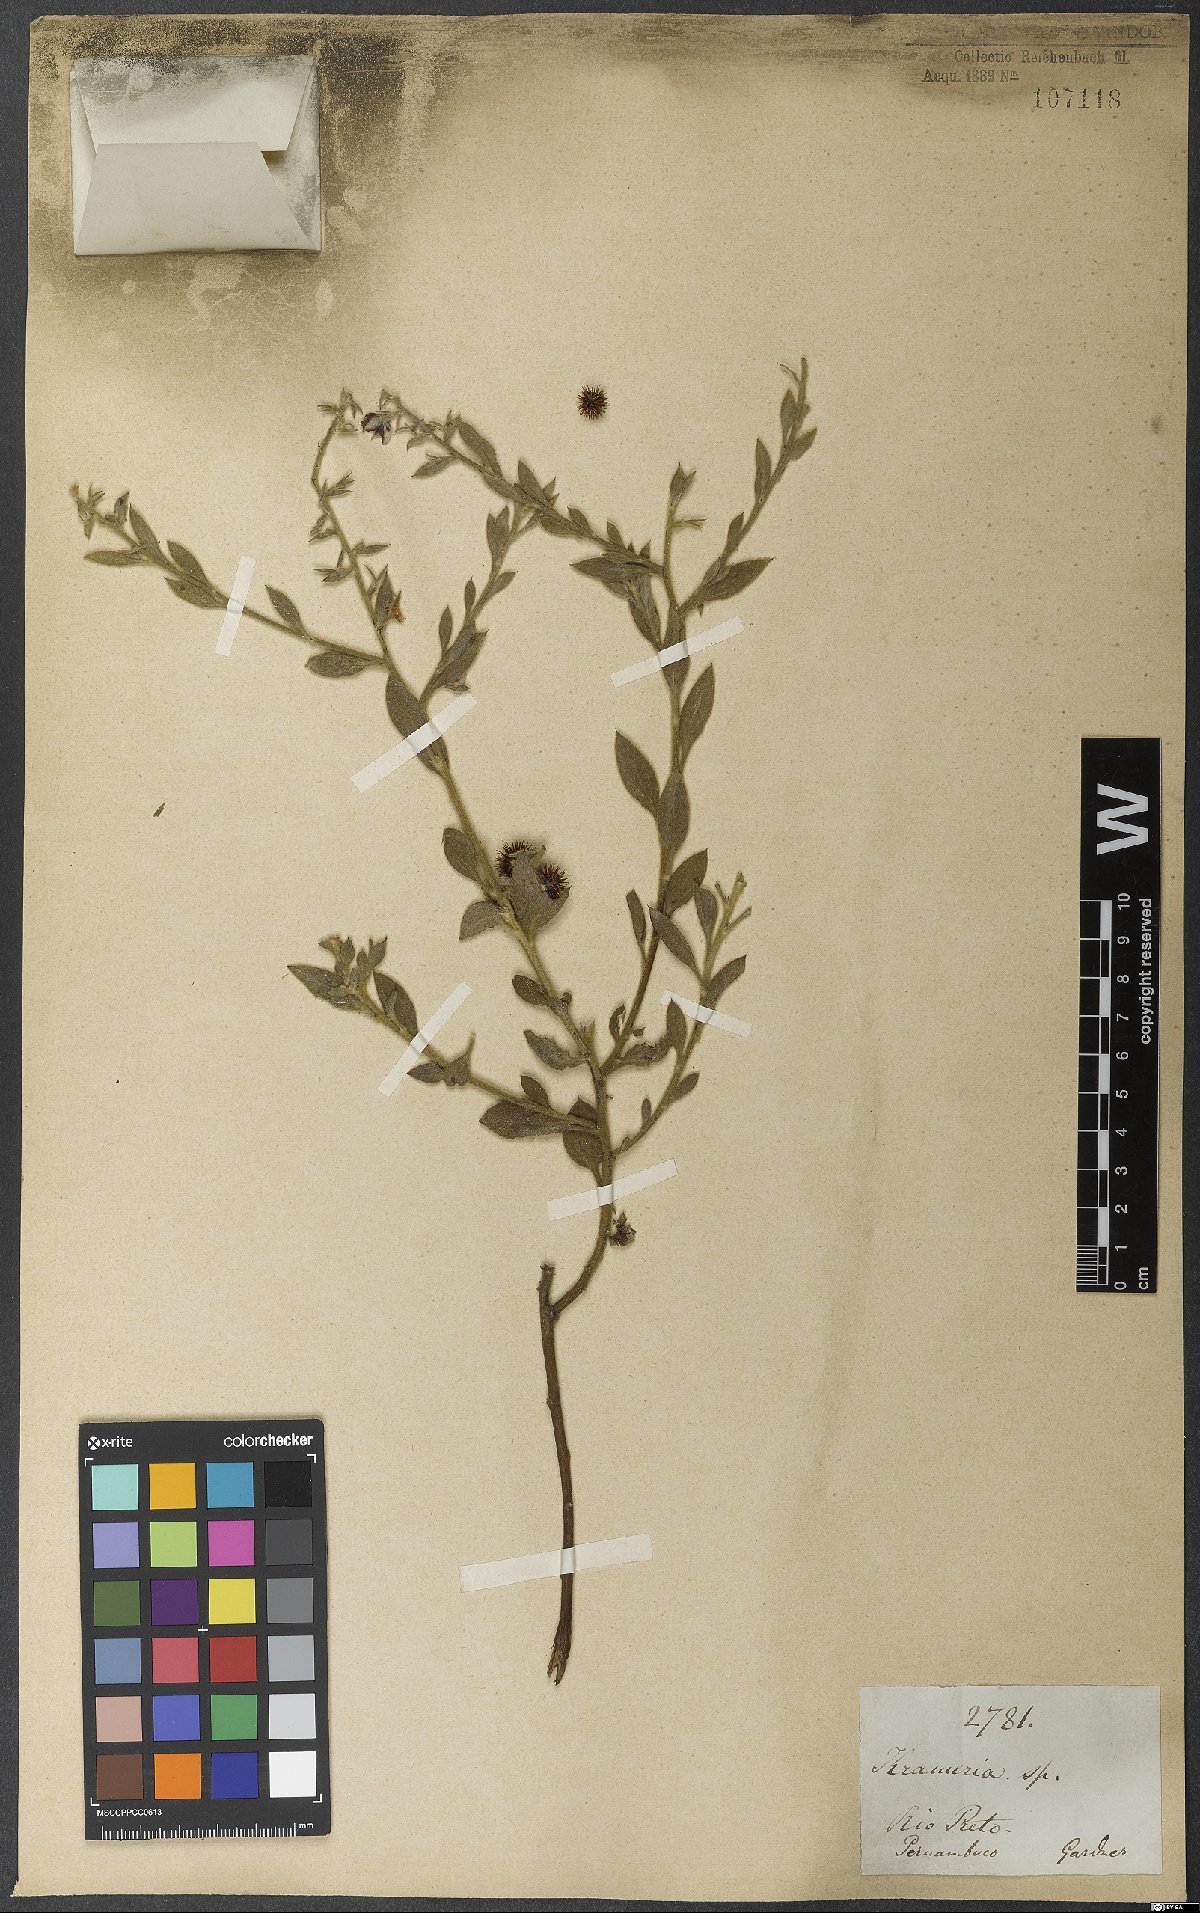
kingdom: Plantae
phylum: Tracheophyta
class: Magnoliopsida
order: Zygophyllales
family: Krameriaceae
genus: Krameria
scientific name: Krameria argentea
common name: Brown-rhatany,-ceará-rhatany
